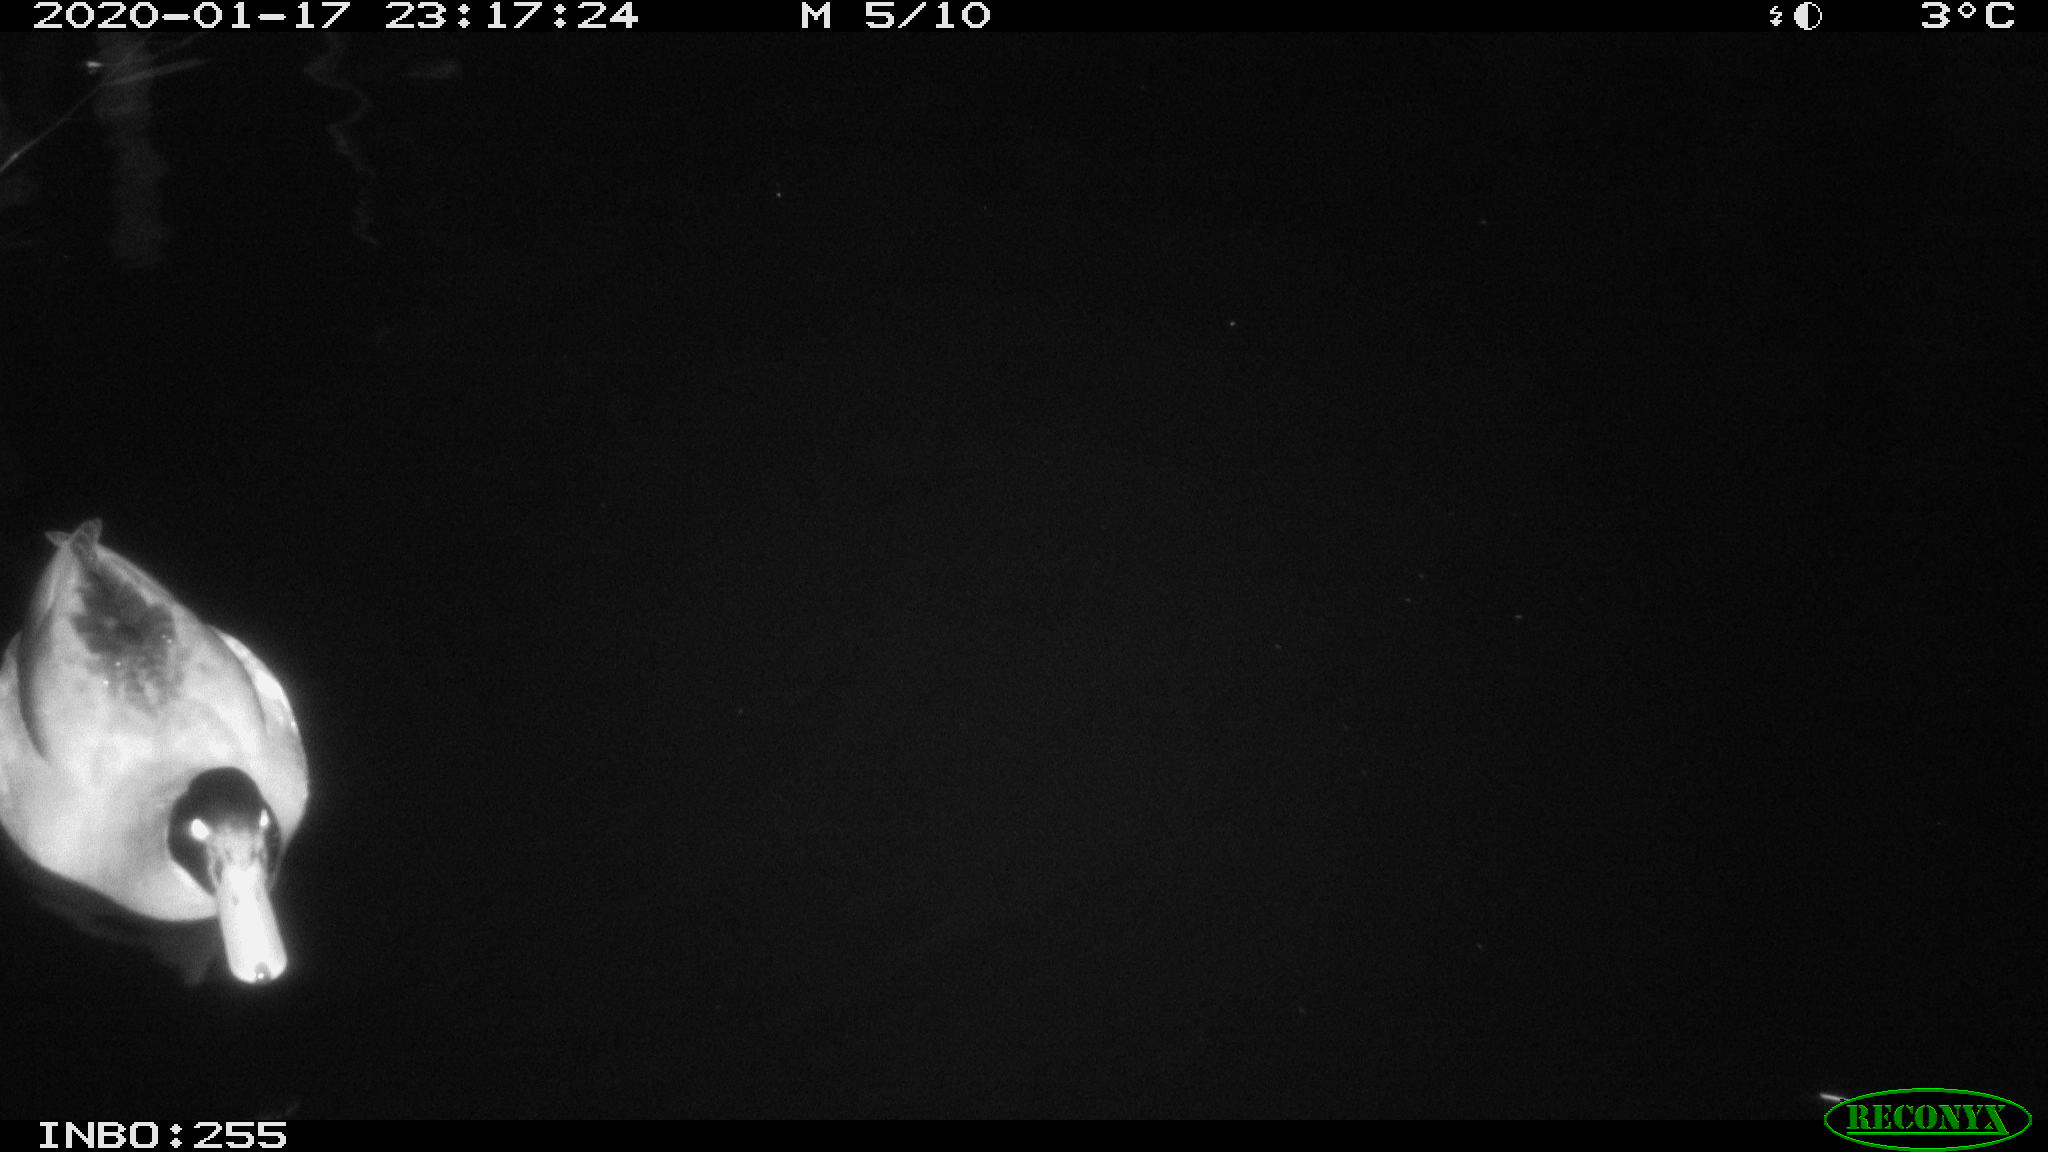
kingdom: Animalia
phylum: Chordata
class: Aves
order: Anseriformes
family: Anatidae
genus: Anas
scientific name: Anas platyrhynchos
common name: Mallard
